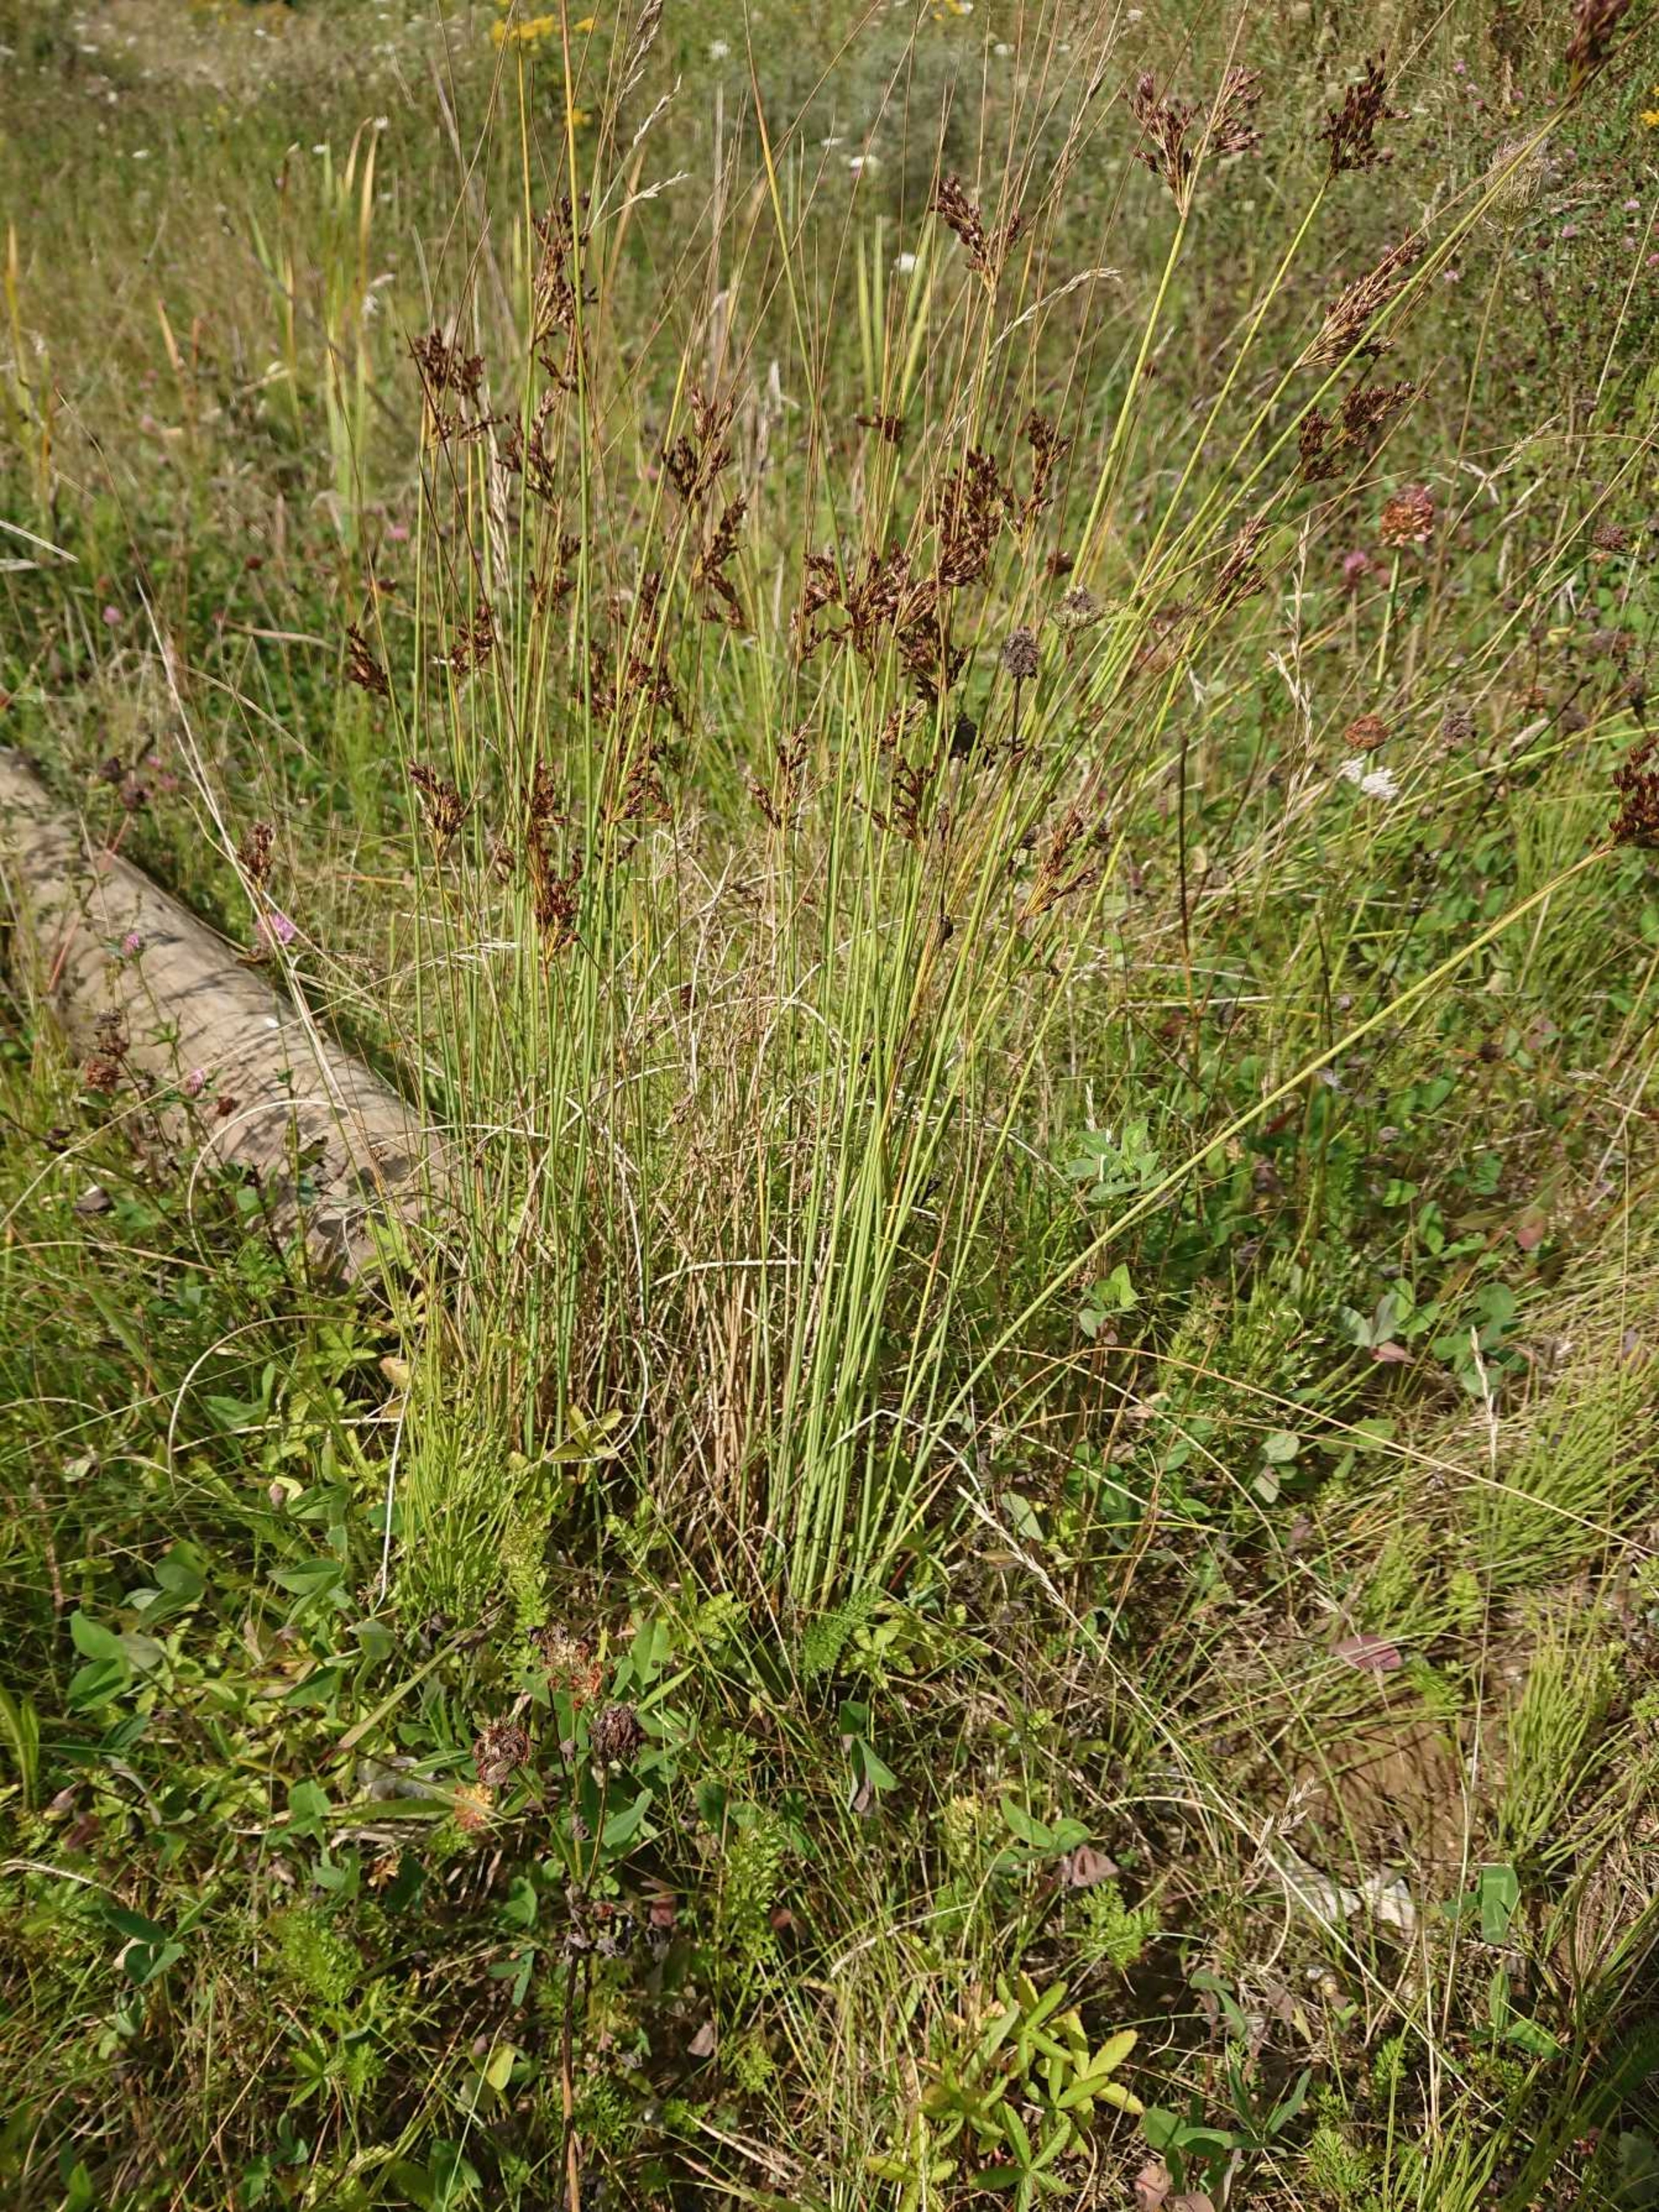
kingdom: Plantae
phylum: Tracheophyta
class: Liliopsida
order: Poales
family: Juncaceae
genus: Juncus
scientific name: Juncus inflexus
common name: Blågrå siv
